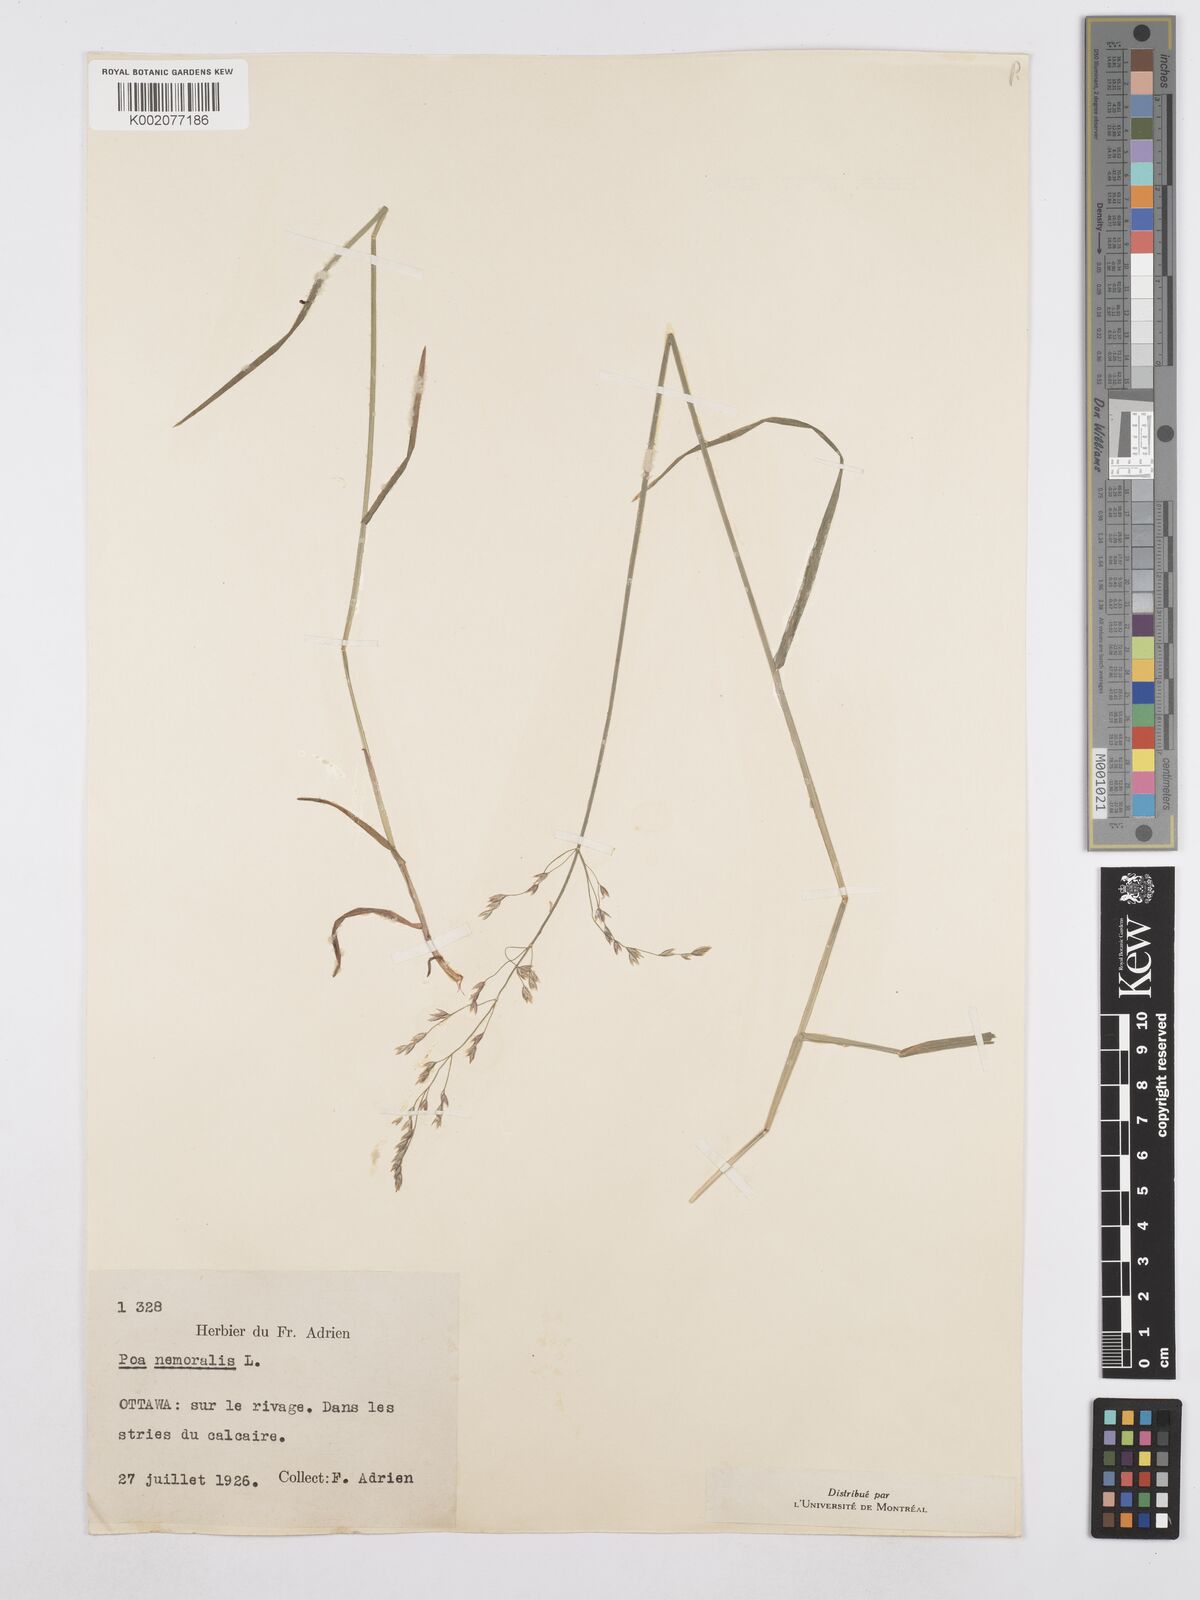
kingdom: Plantae
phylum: Tracheophyta
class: Liliopsida
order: Poales
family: Poaceae
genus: Poa
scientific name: Poa nemoralis
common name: Wood bluegrass
